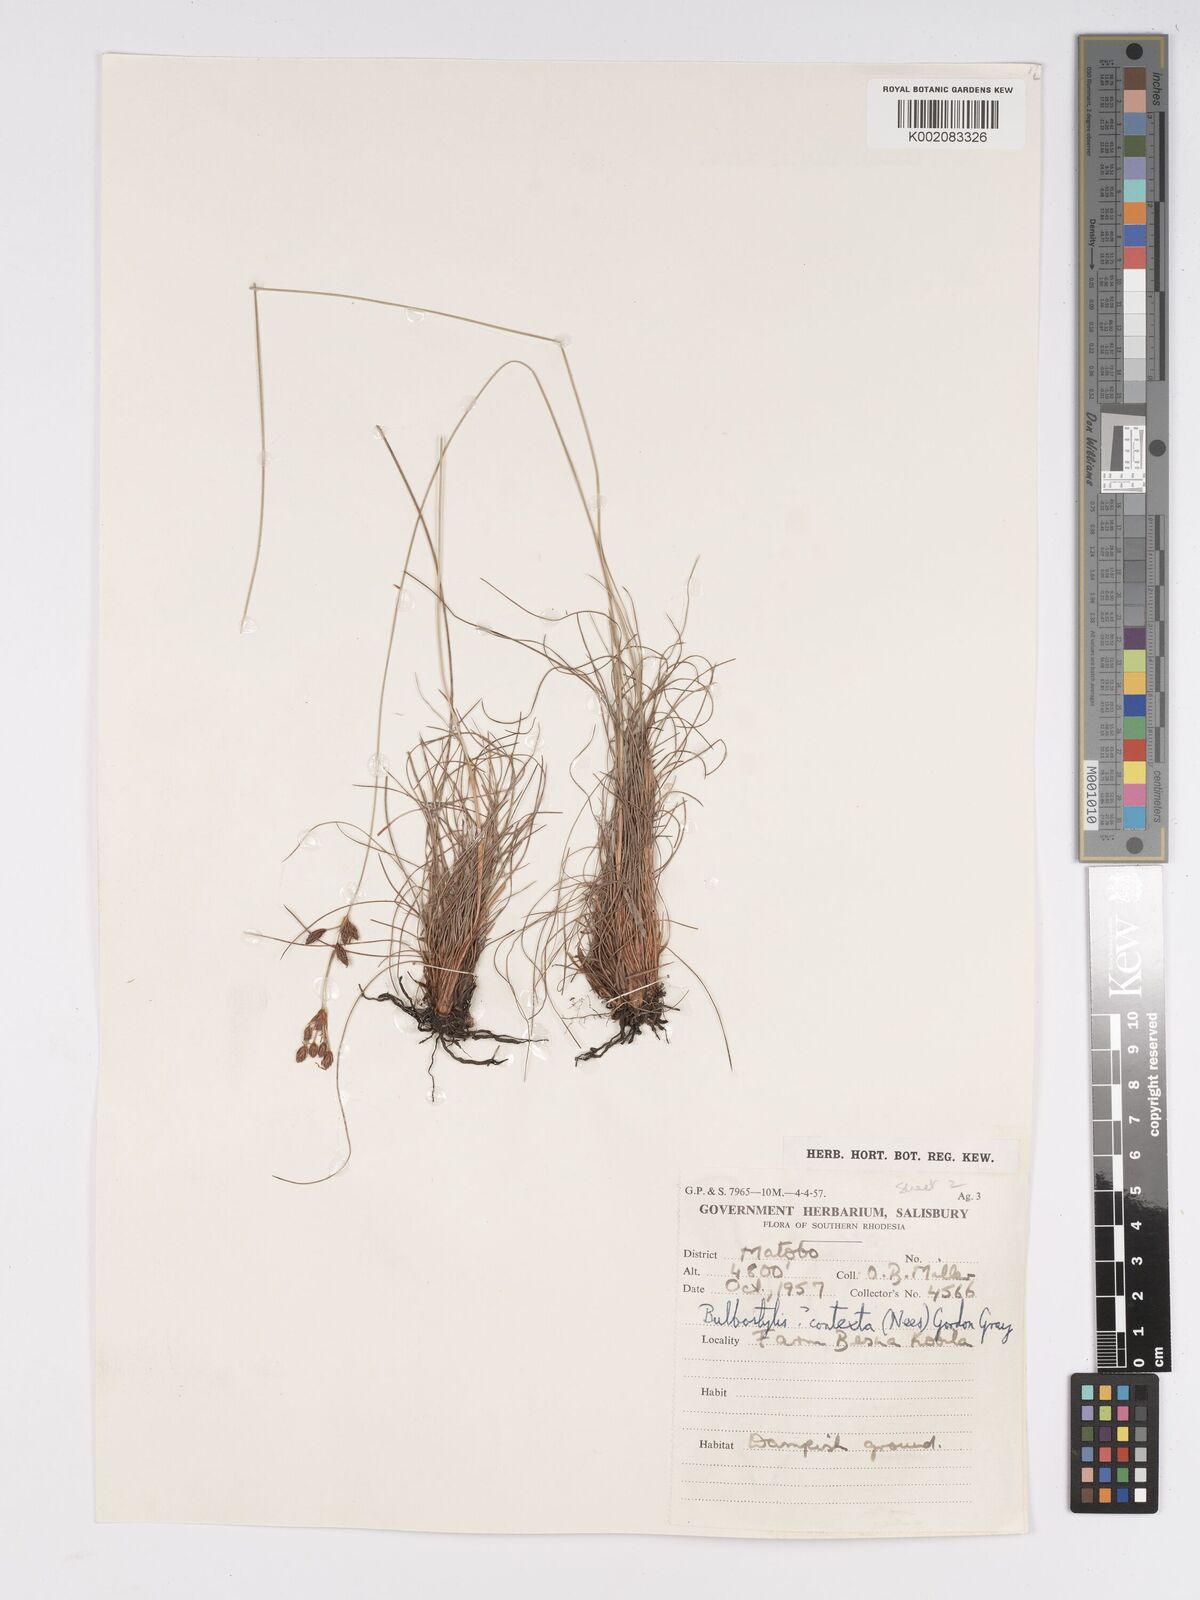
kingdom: Plantae
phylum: Tracheophyta
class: Liliopsida
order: Poales
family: Cyperaceae
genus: Bulbostylis
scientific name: Bulbostylis schoenoides
